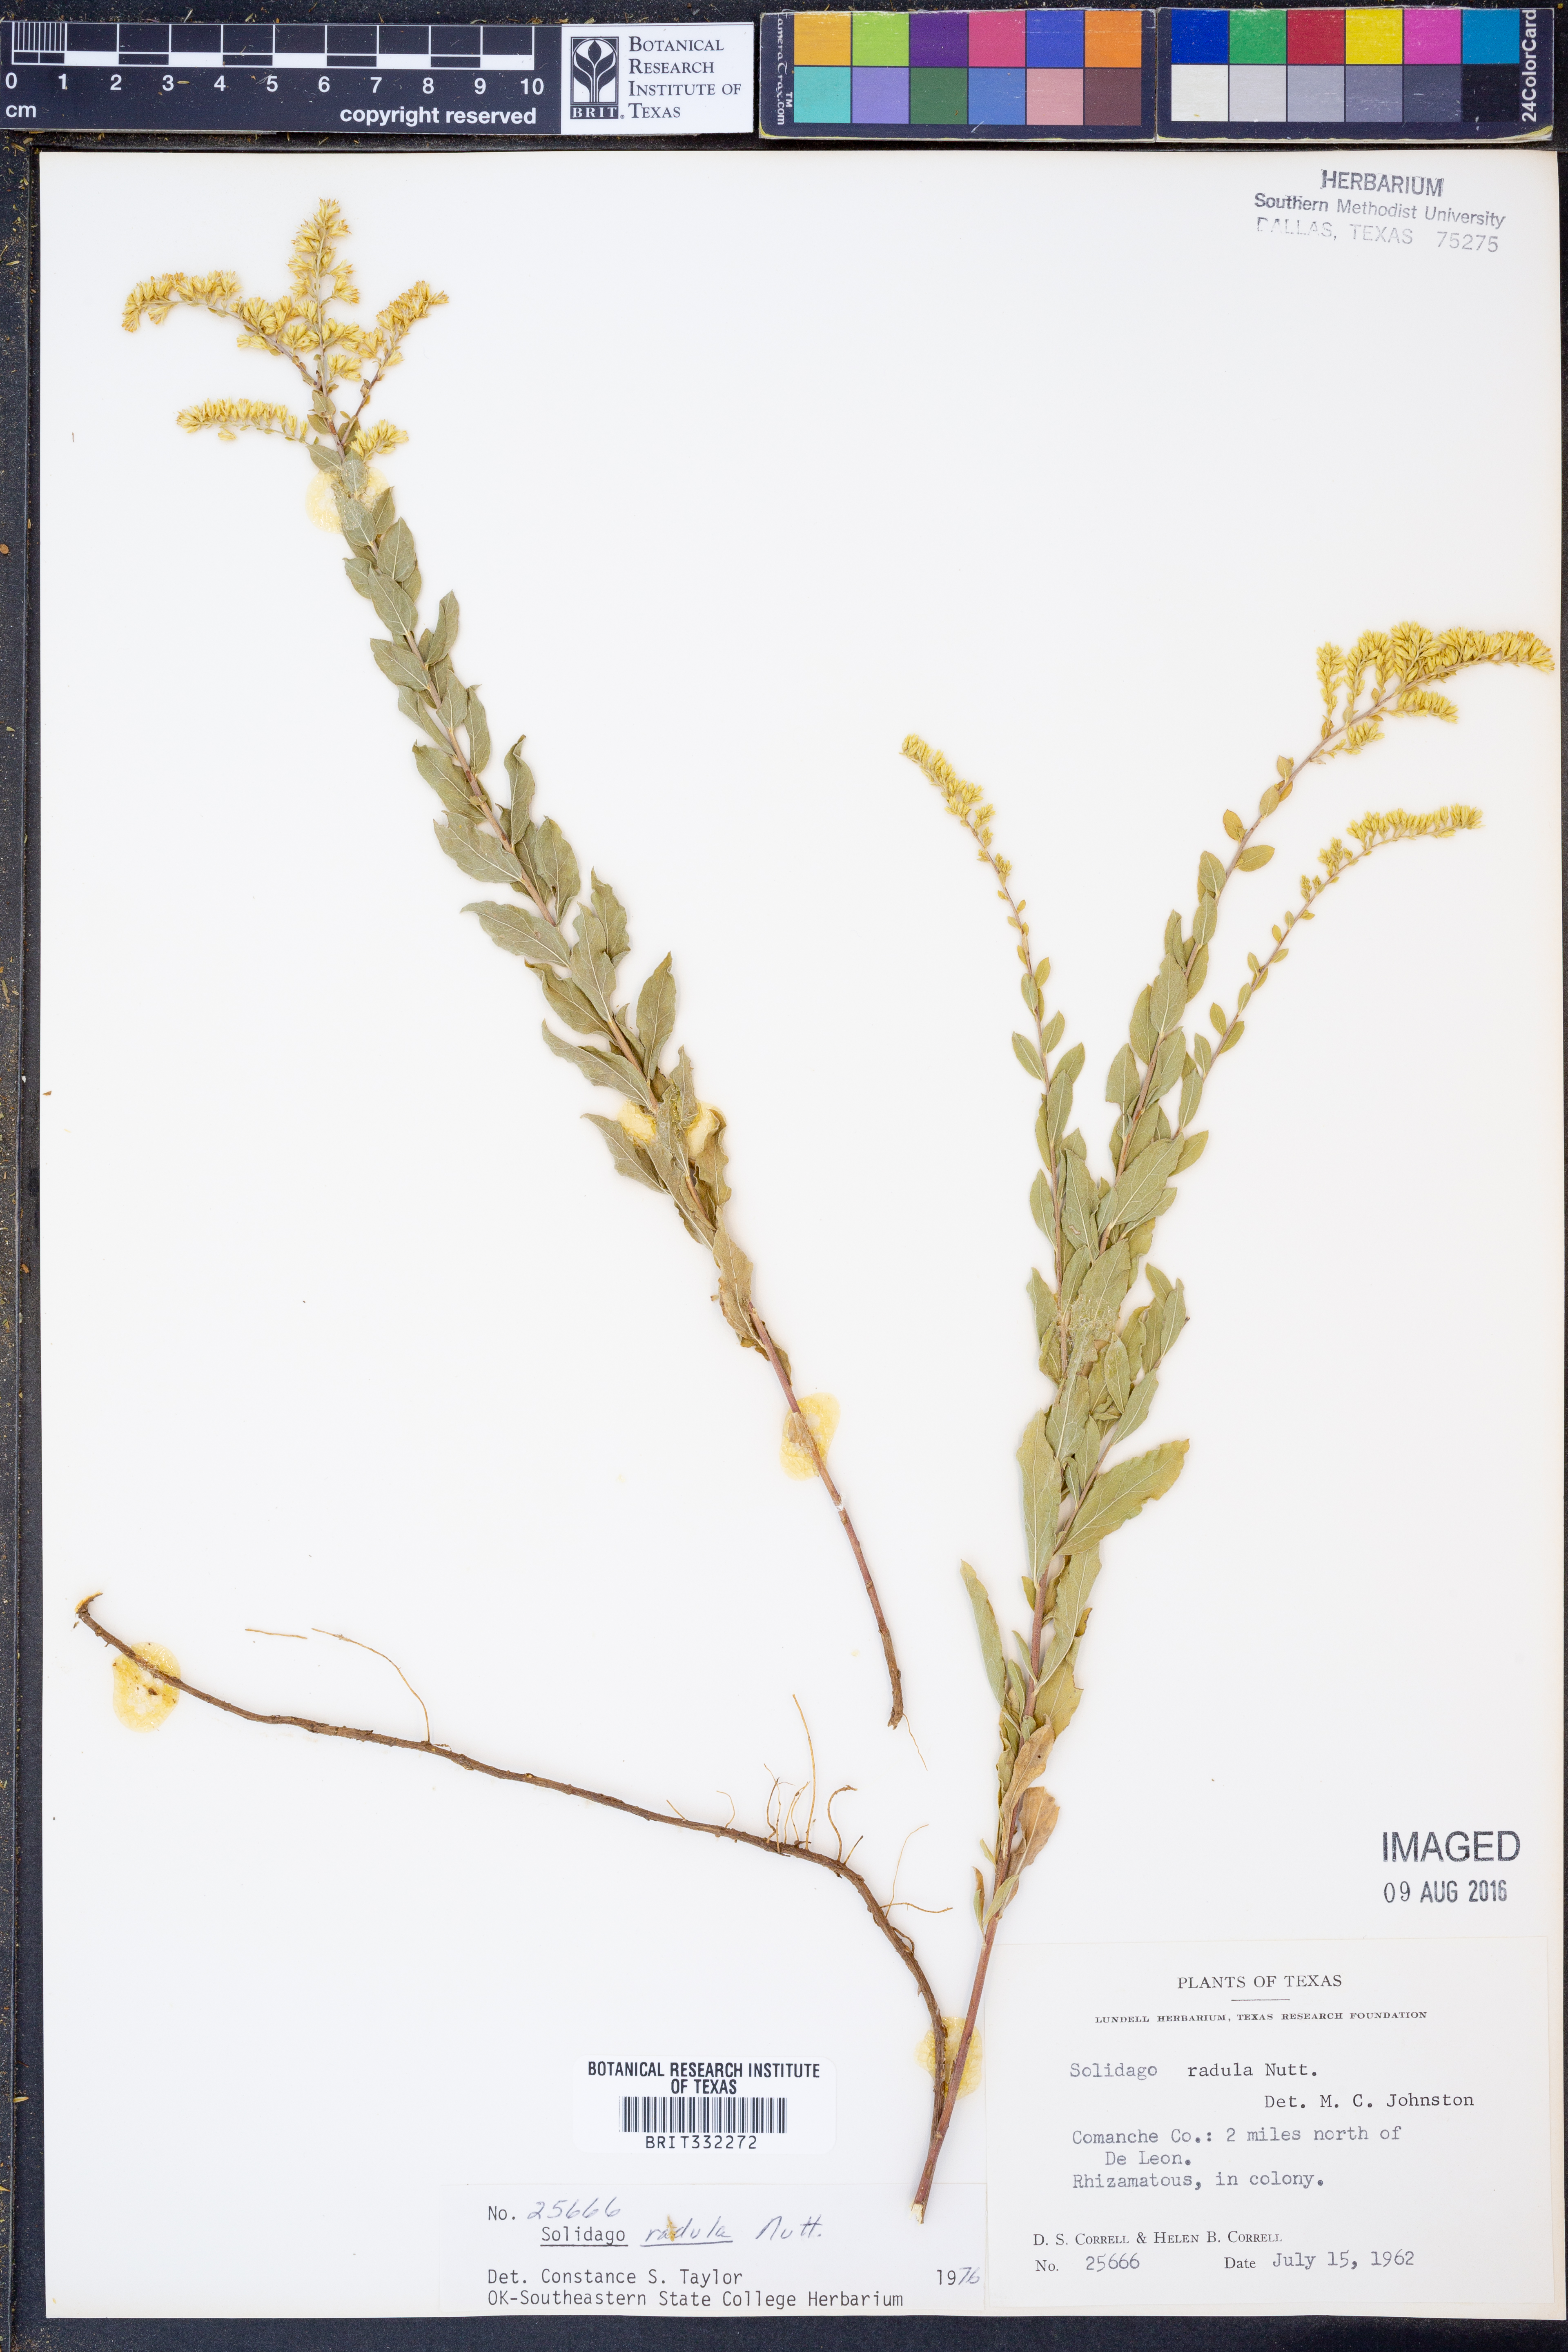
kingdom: Plantae
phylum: Tracheophyta
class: Magnoliopsida
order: Asterales
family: Asteraceae
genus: Solidago
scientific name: Solidago radula
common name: Western rough goldenrod
